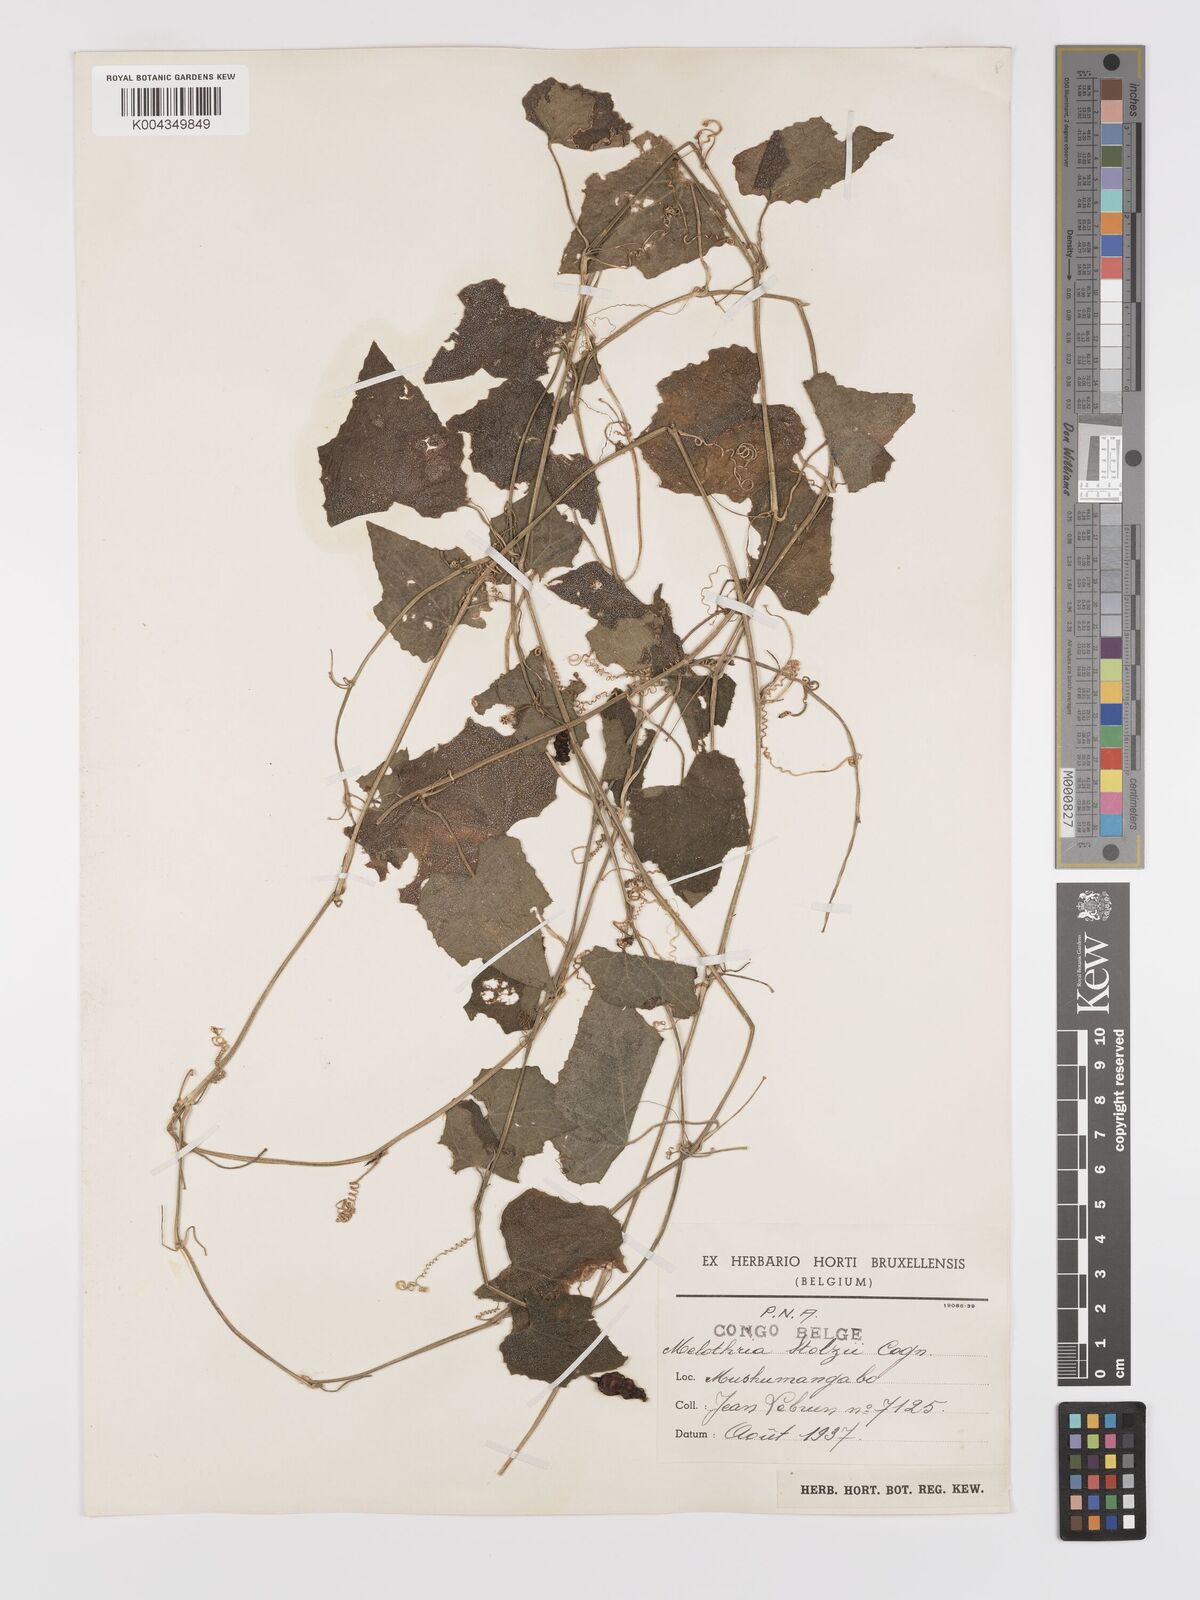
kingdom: Plantae
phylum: Tracheophyta
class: Magnoliopsida
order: Cucurbitales
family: Cucurbitaceae
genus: Zehneria
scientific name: Zehneria minutiflora
